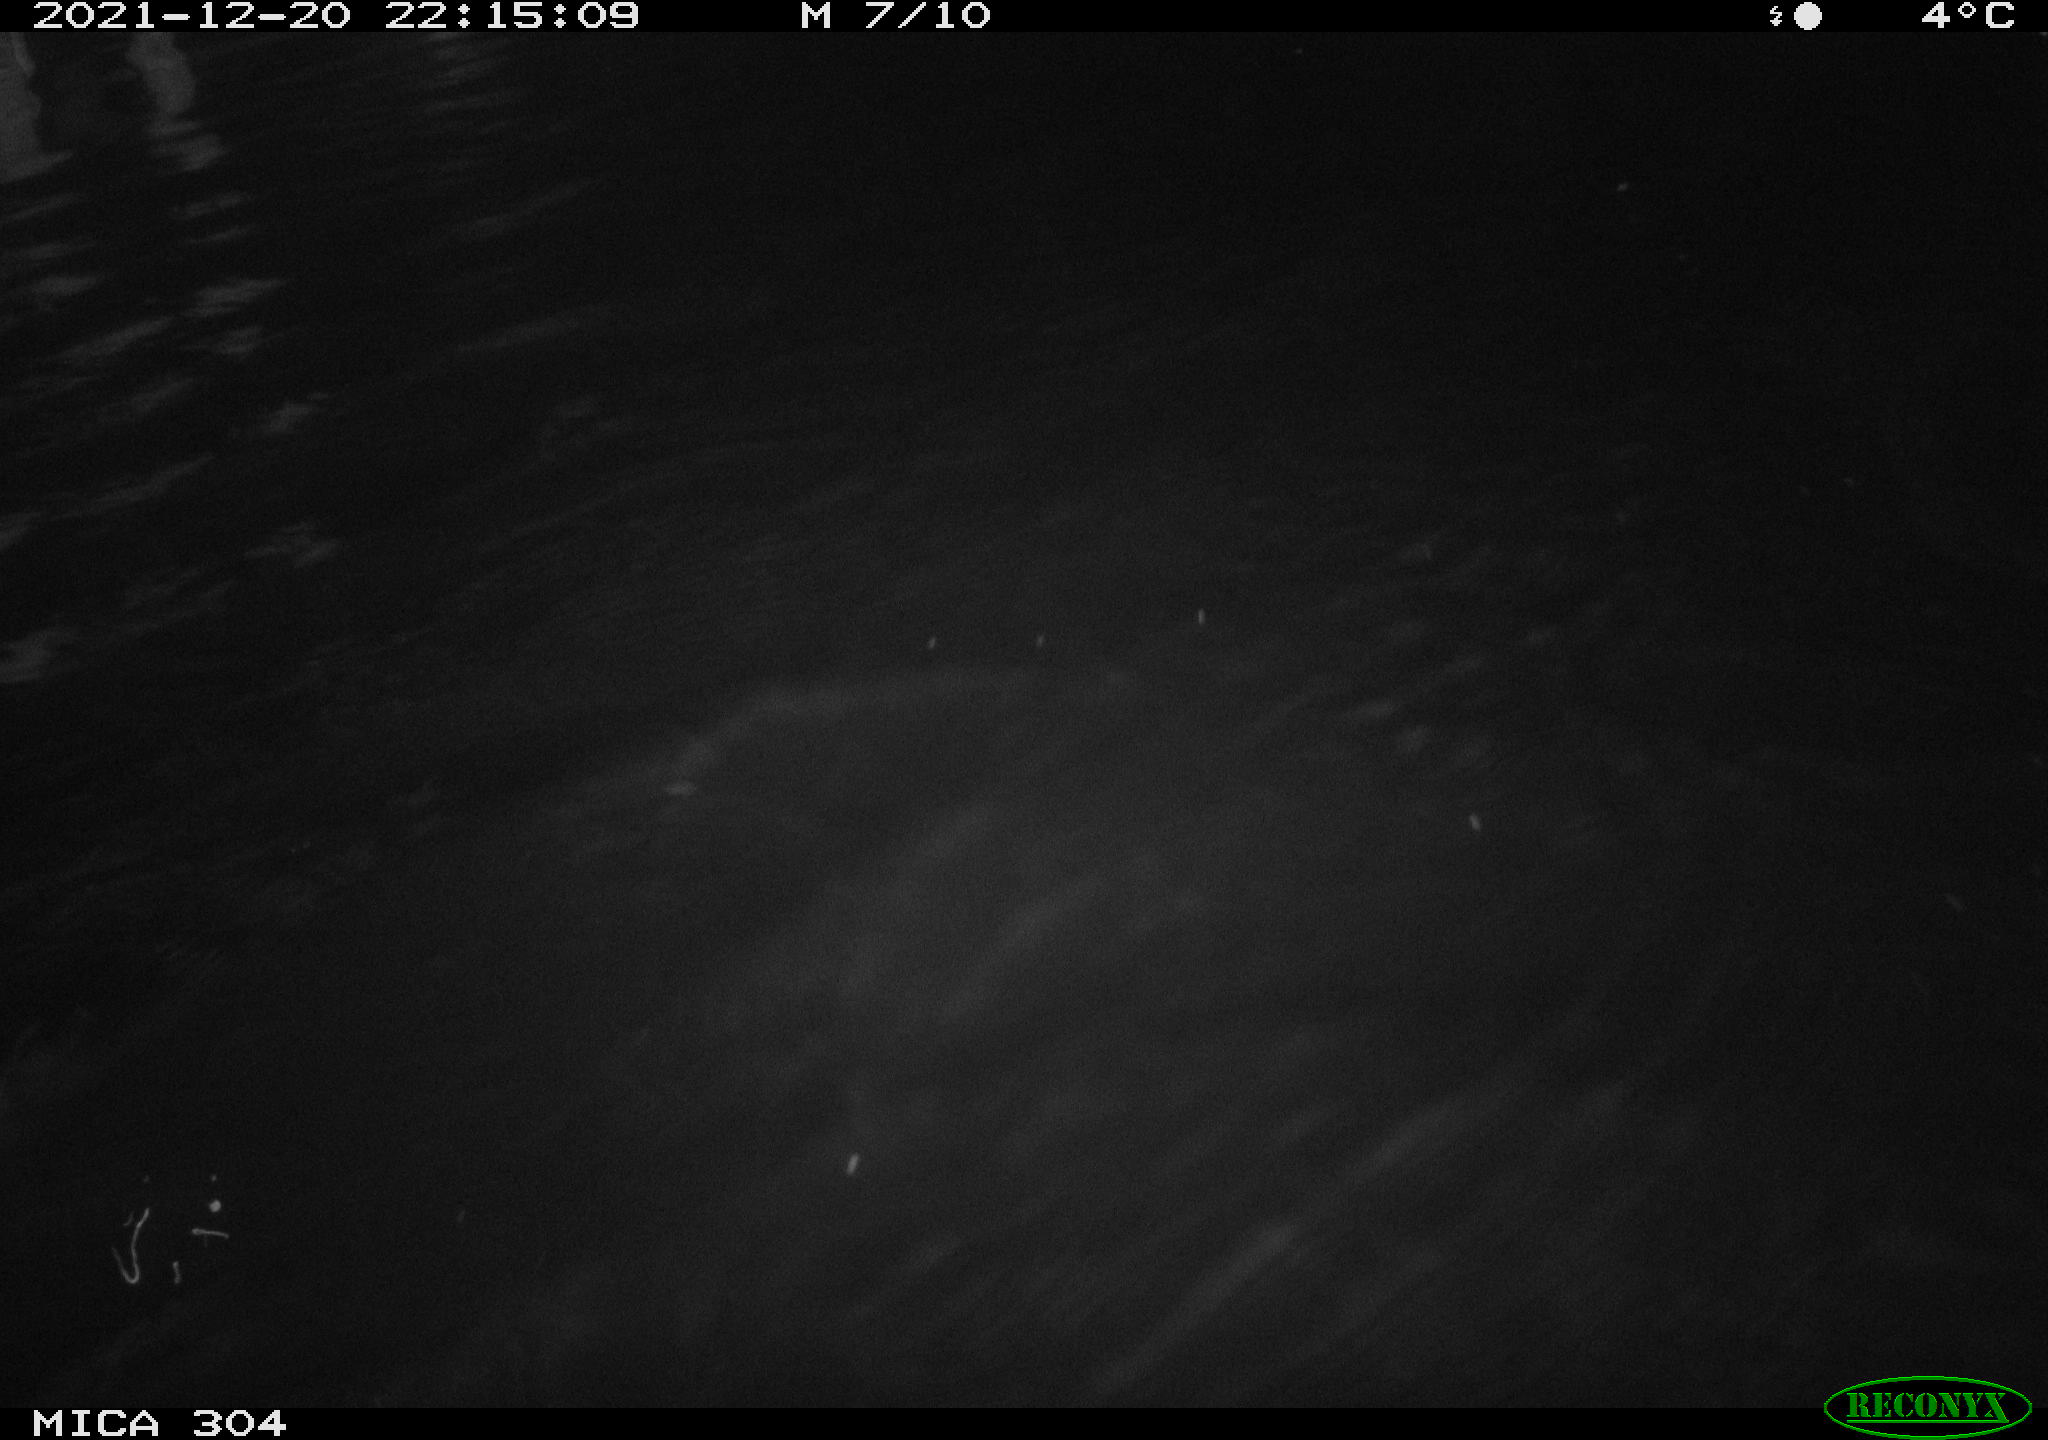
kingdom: Animalia
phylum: Chordata
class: Aves
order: Anseriformes
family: Anatidae
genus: Anas
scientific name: Anas
